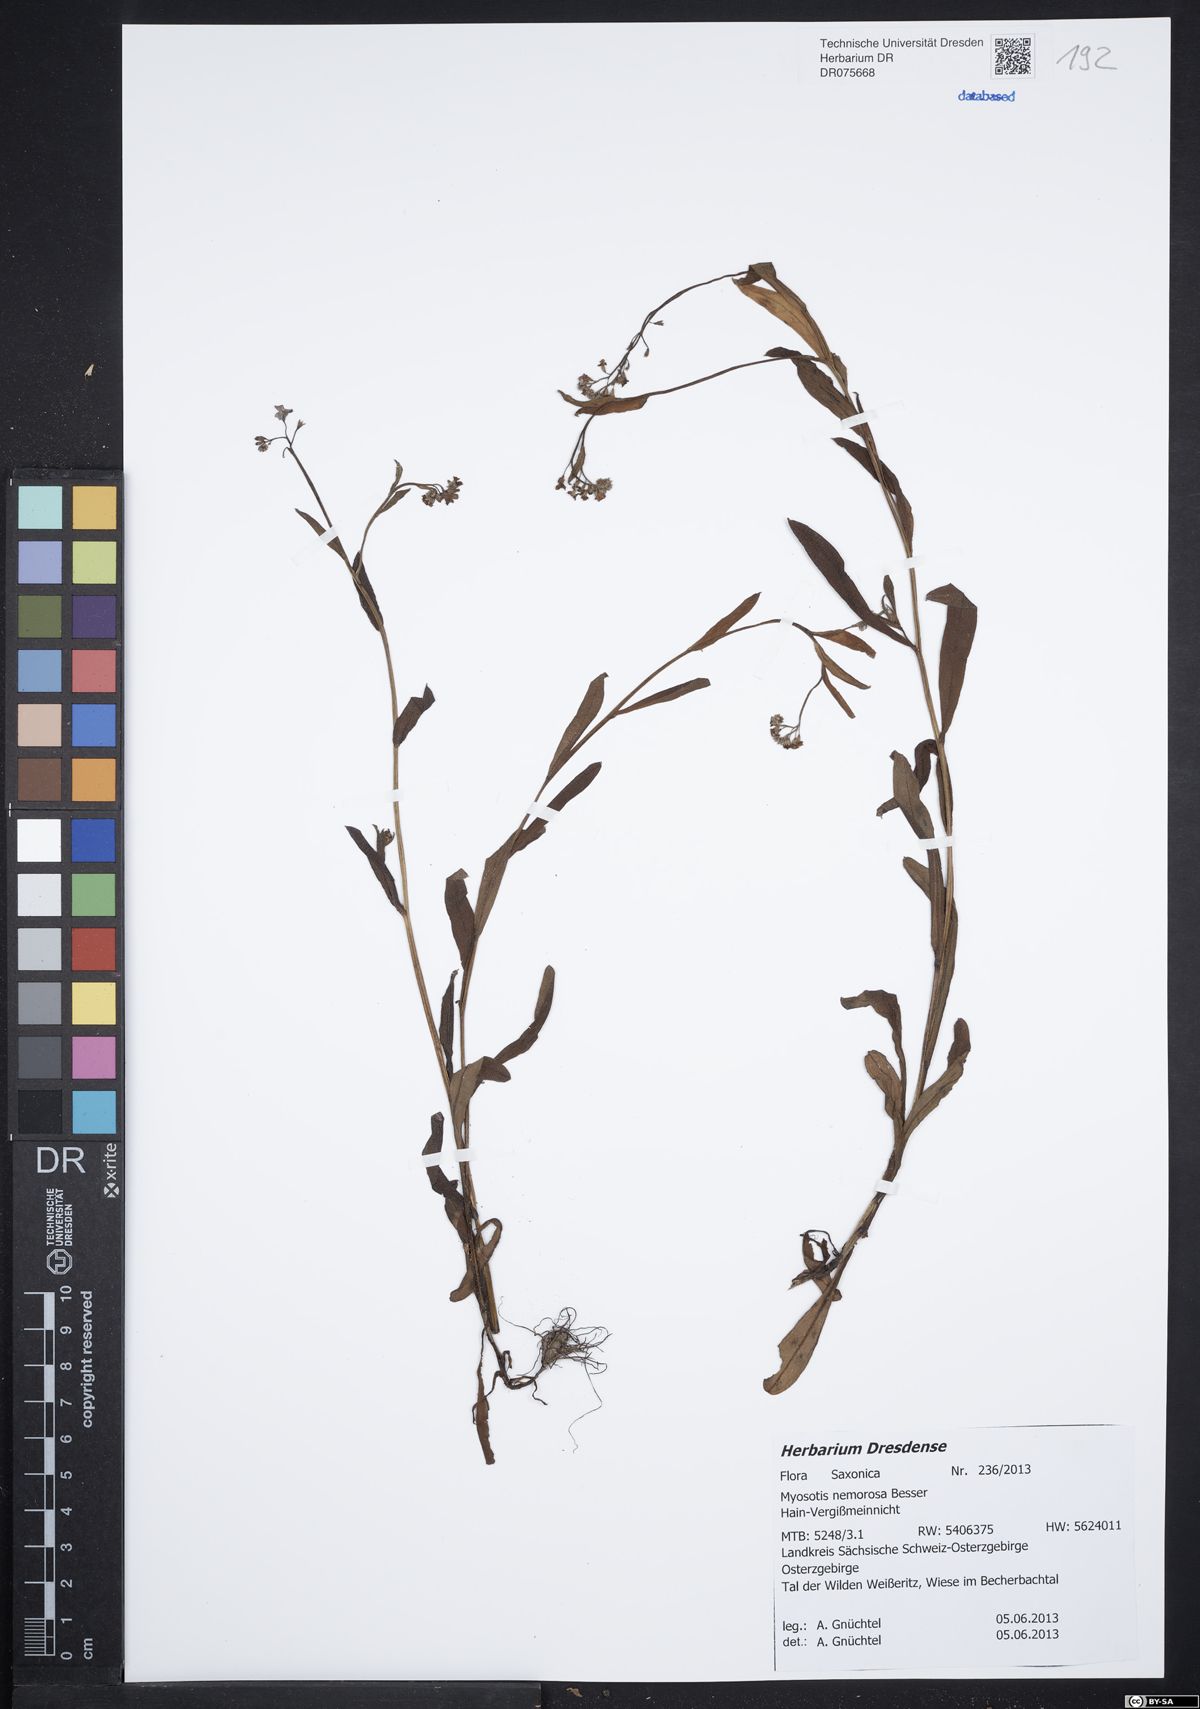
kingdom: Plantae
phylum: Tracheophyta
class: Magnoliopsida
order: Boraginales
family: Boraginaceae
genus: Myosotis
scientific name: Myosotis nemorosa
